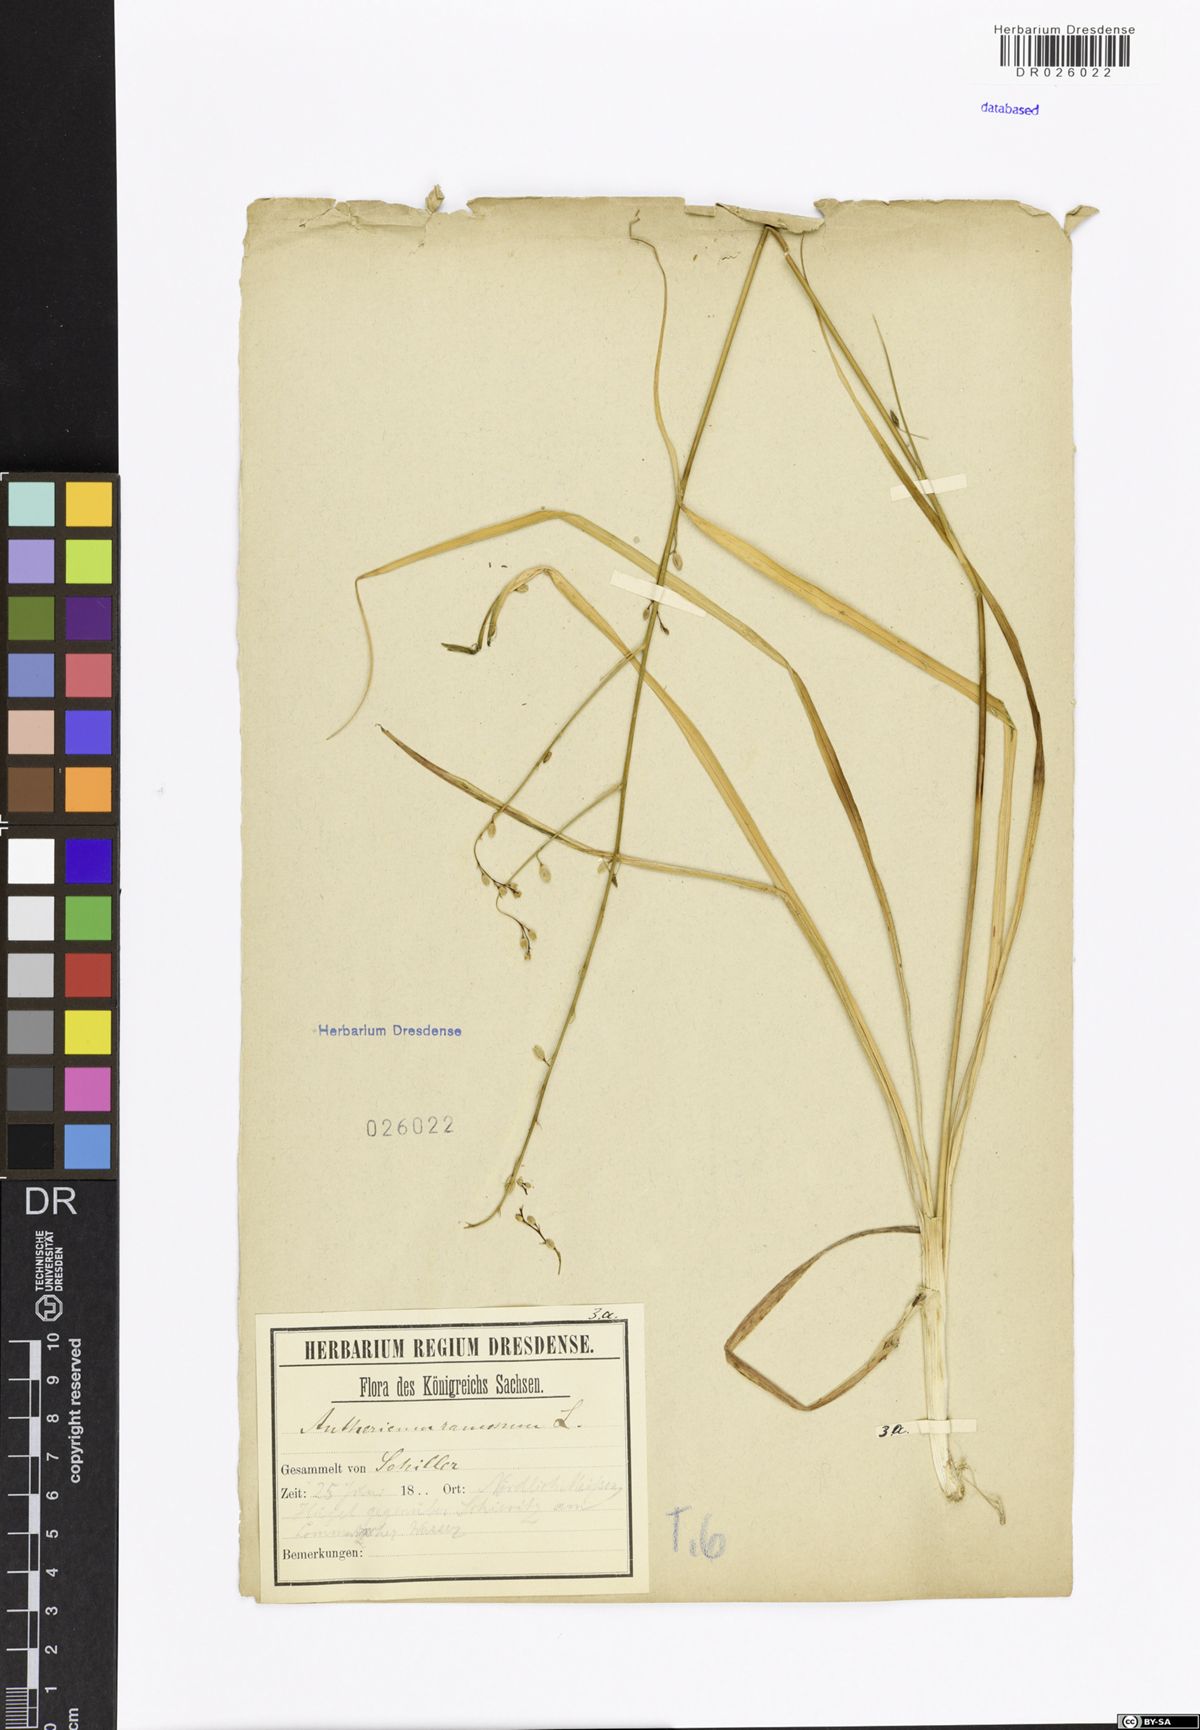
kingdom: Plantae
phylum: Tracheophyta
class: Liliopsida
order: Asparagales
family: Asparagaceae
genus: Anthericum
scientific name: Anthericum ramosum
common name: Branched st. bernard's-lily
